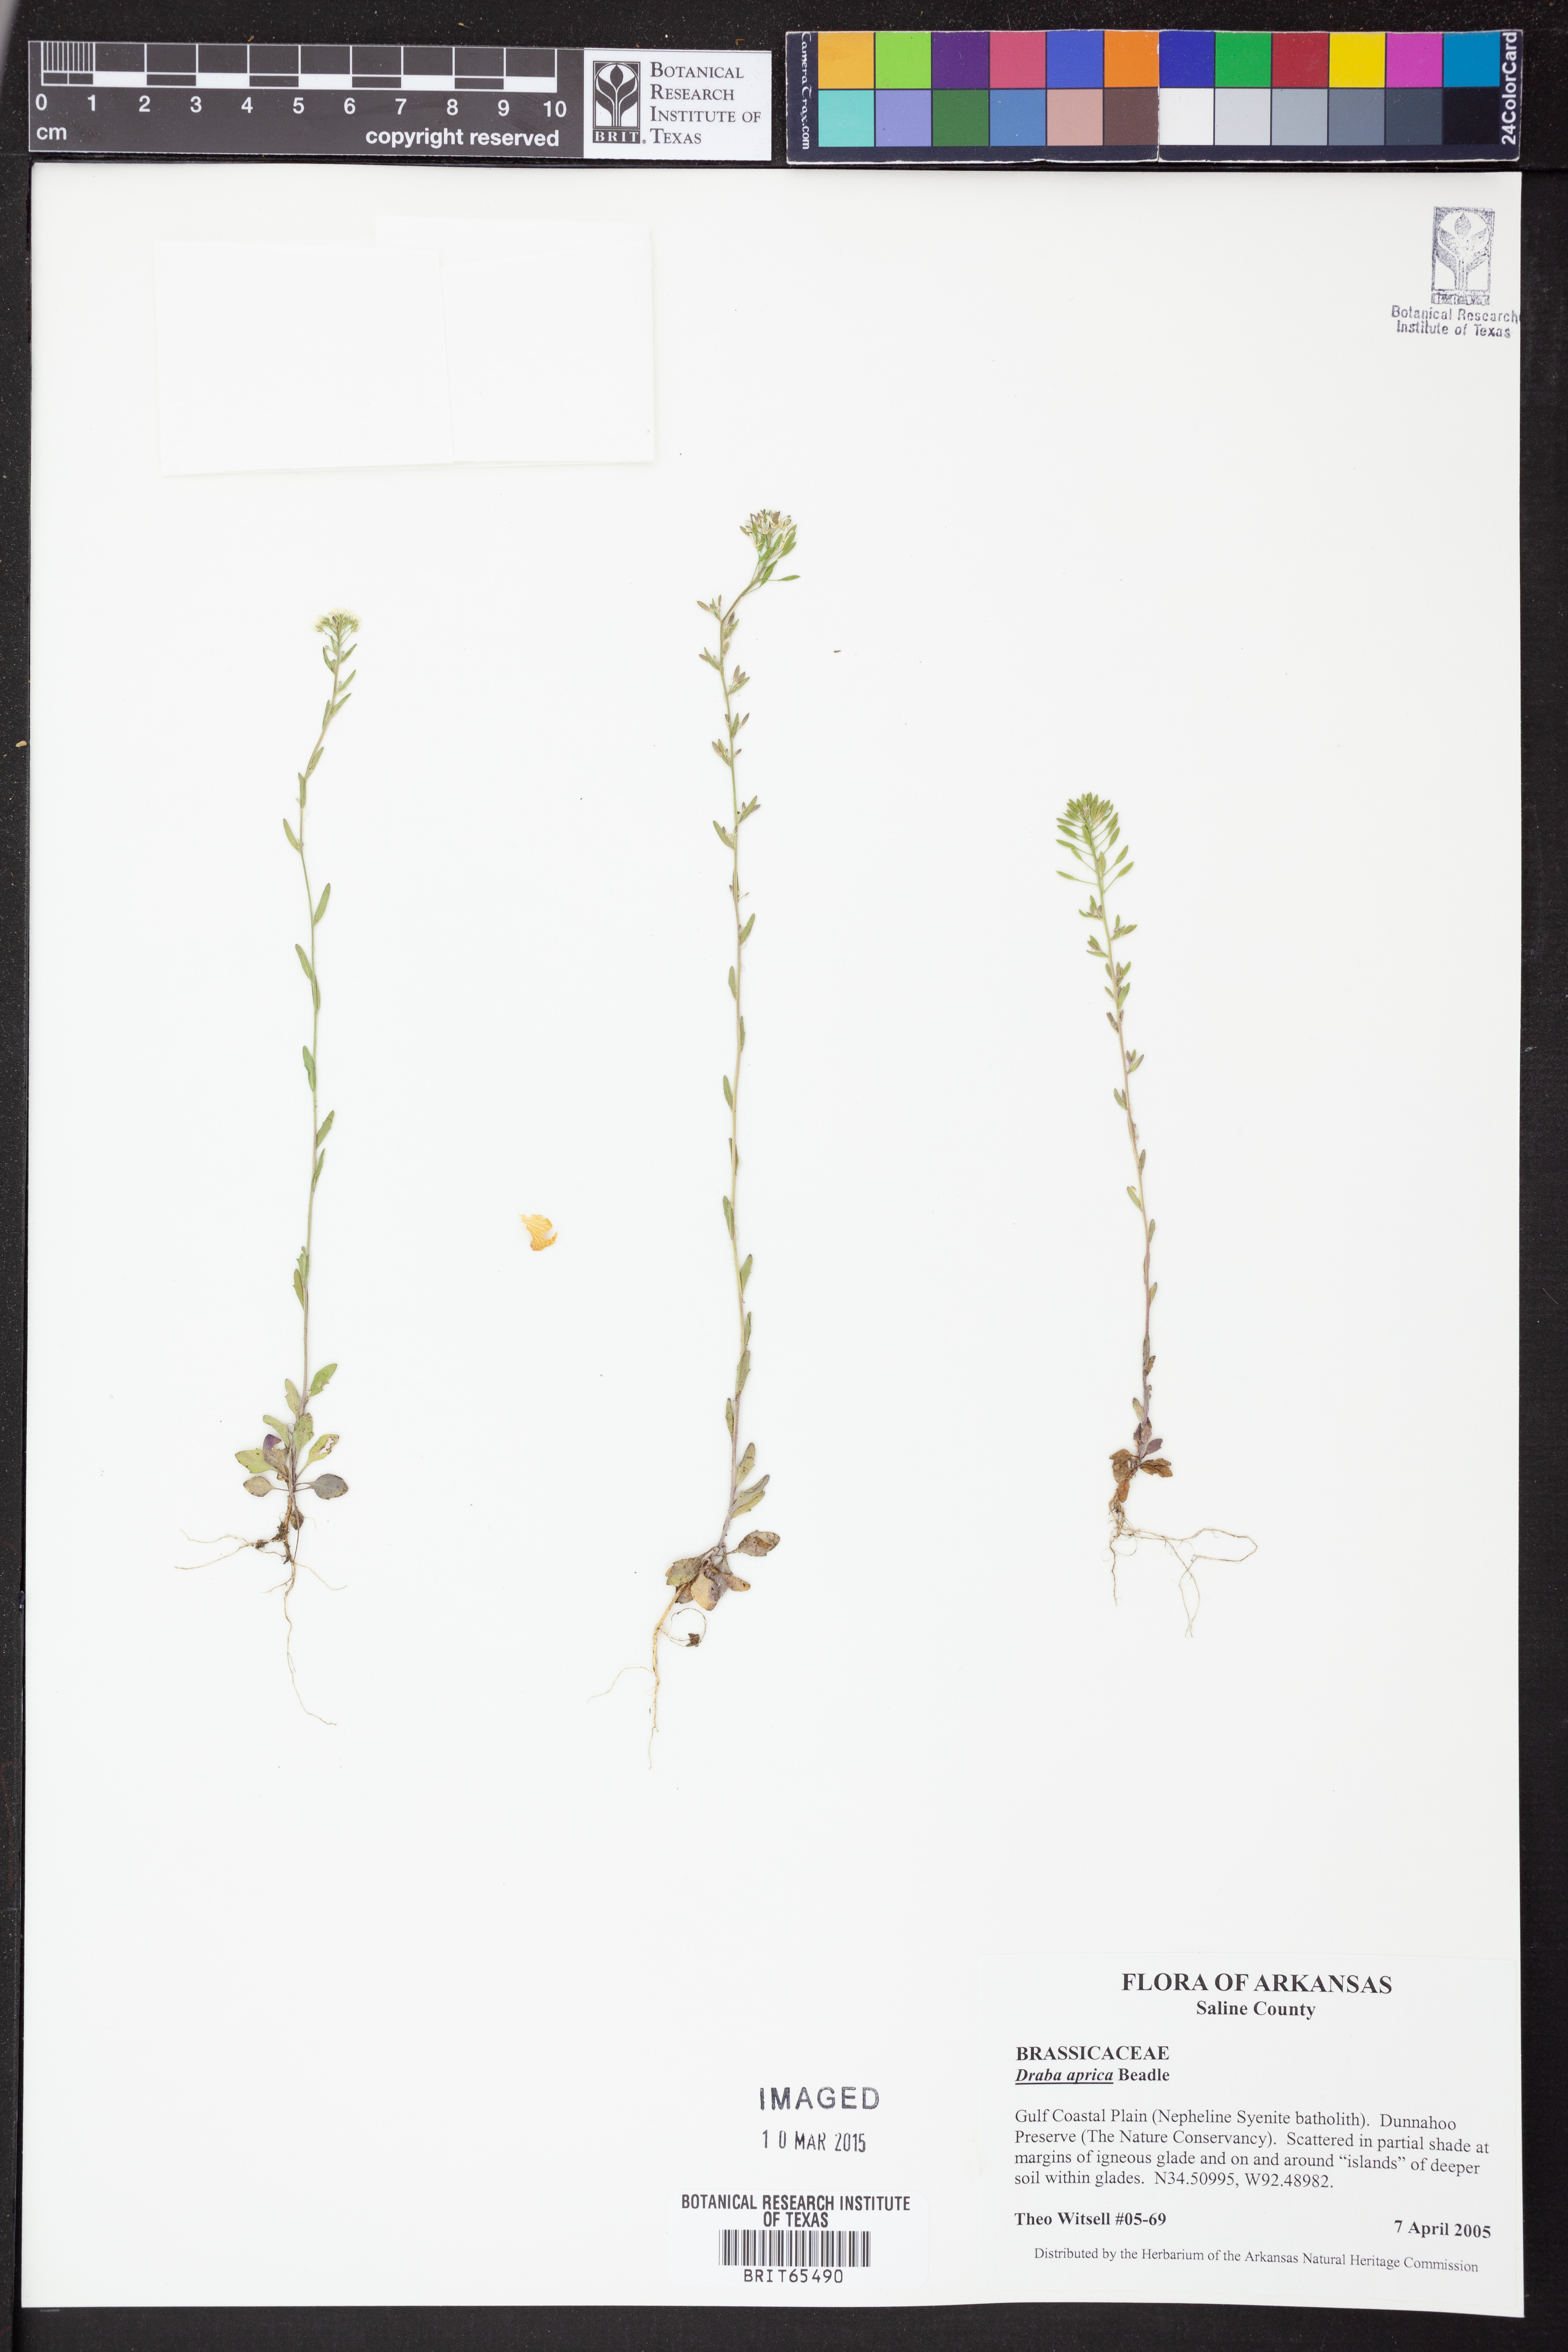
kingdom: Plantae
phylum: Tracheophyta
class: Magnoliopsida
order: Brassicales
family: Brassicaceae
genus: Draba
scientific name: Draba
